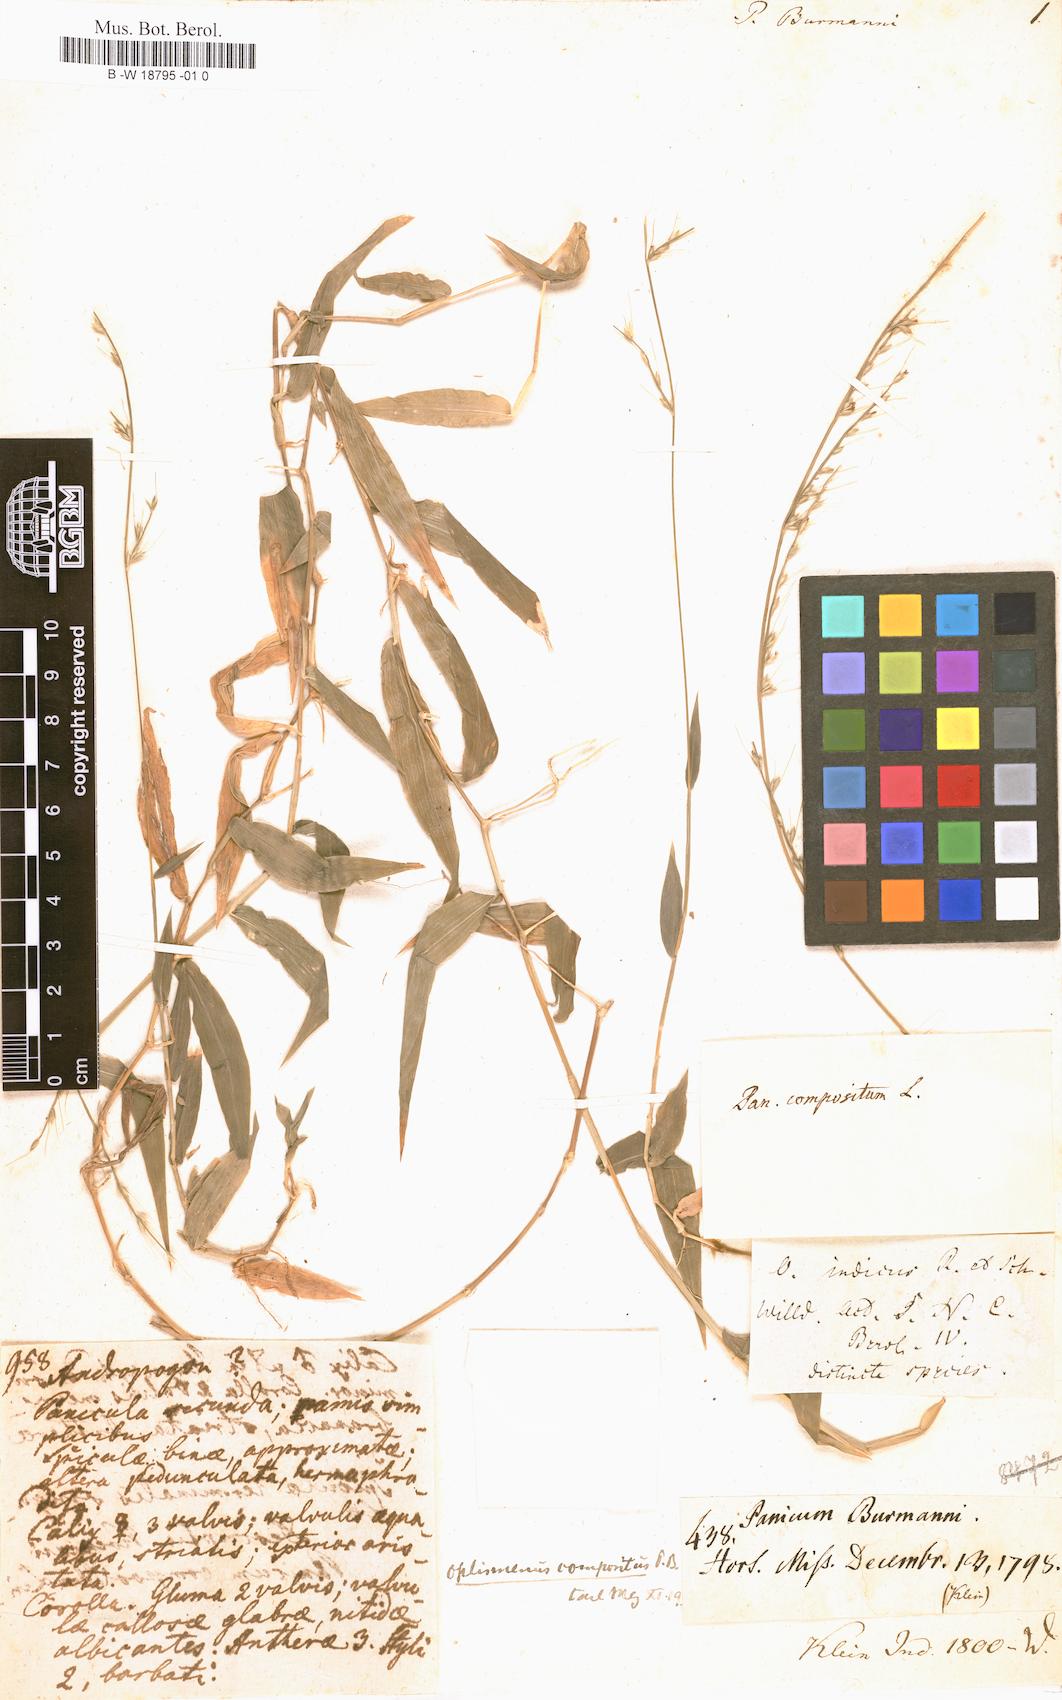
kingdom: Plantae
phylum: Tracheophyta
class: Liliopsida
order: Poales
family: Poaceae
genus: Panicum
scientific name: Panicum burmanni
